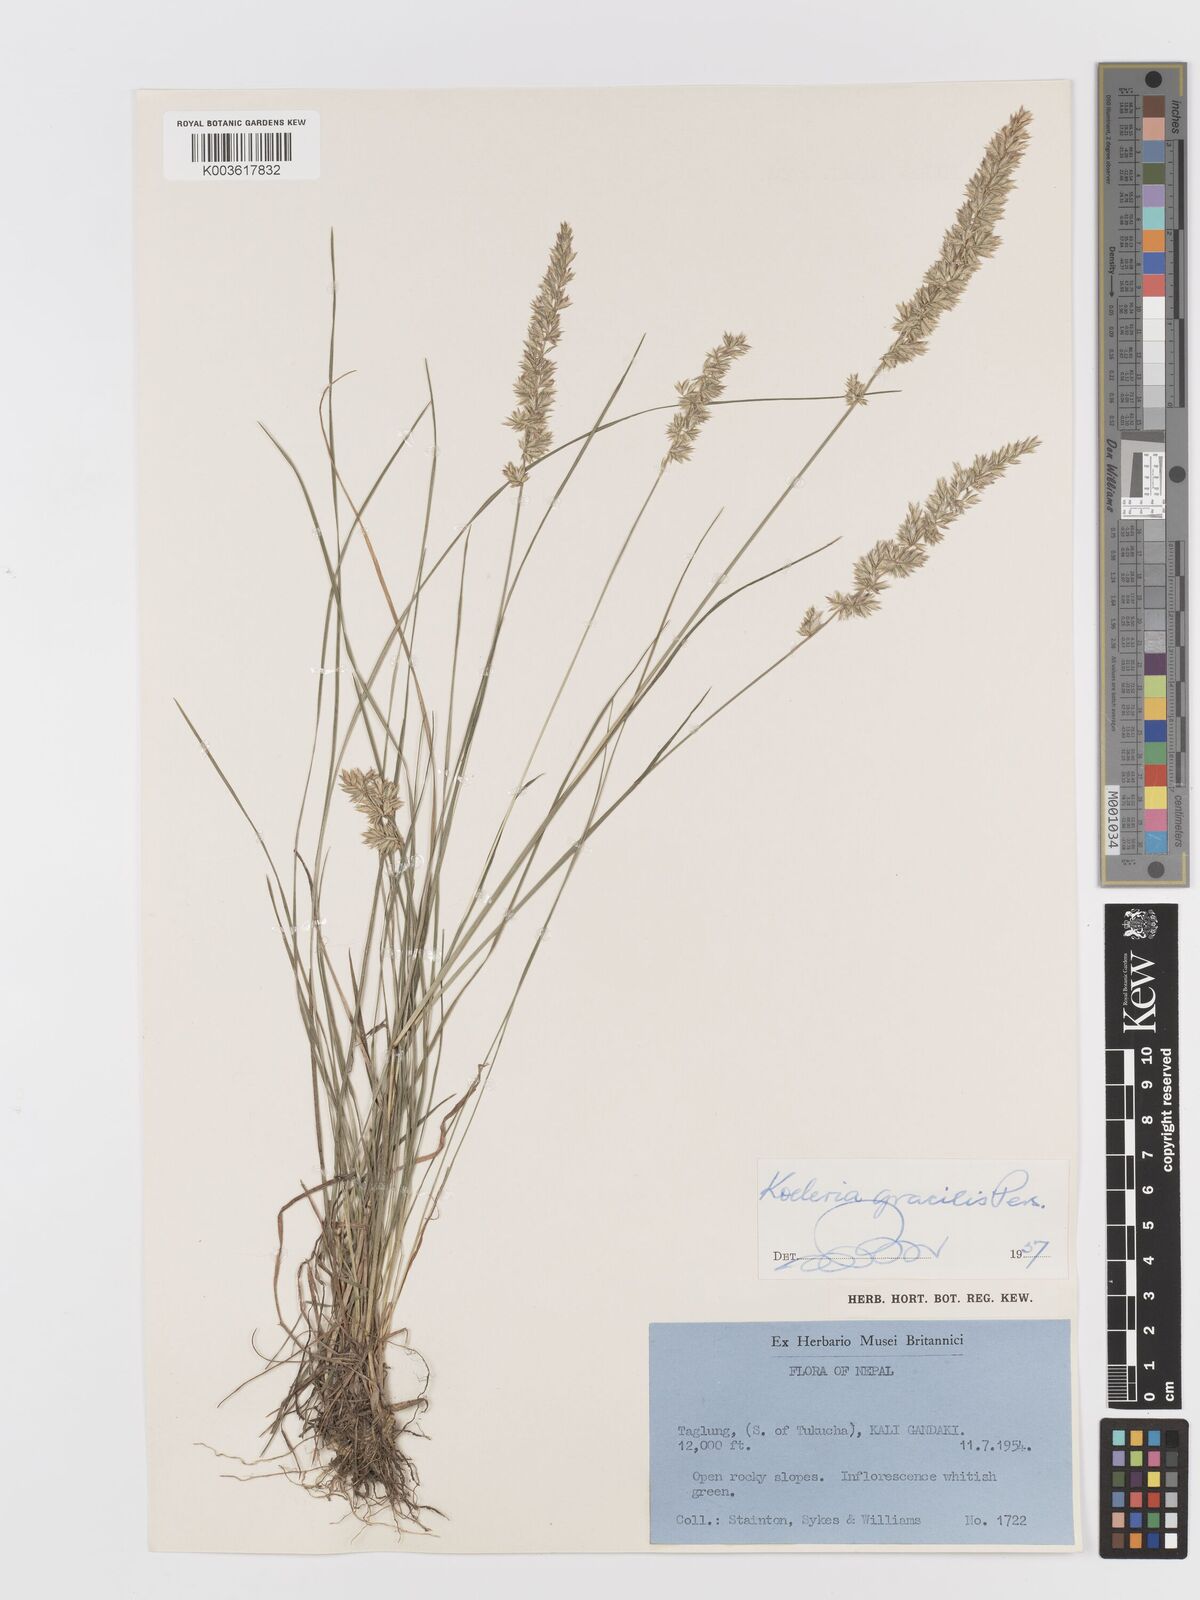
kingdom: Plantae
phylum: Tracheophyta
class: Liliopsida
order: Poales
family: Poaceae
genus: Koeleria
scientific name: Koeleria macrantha
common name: Crested hair-grass
